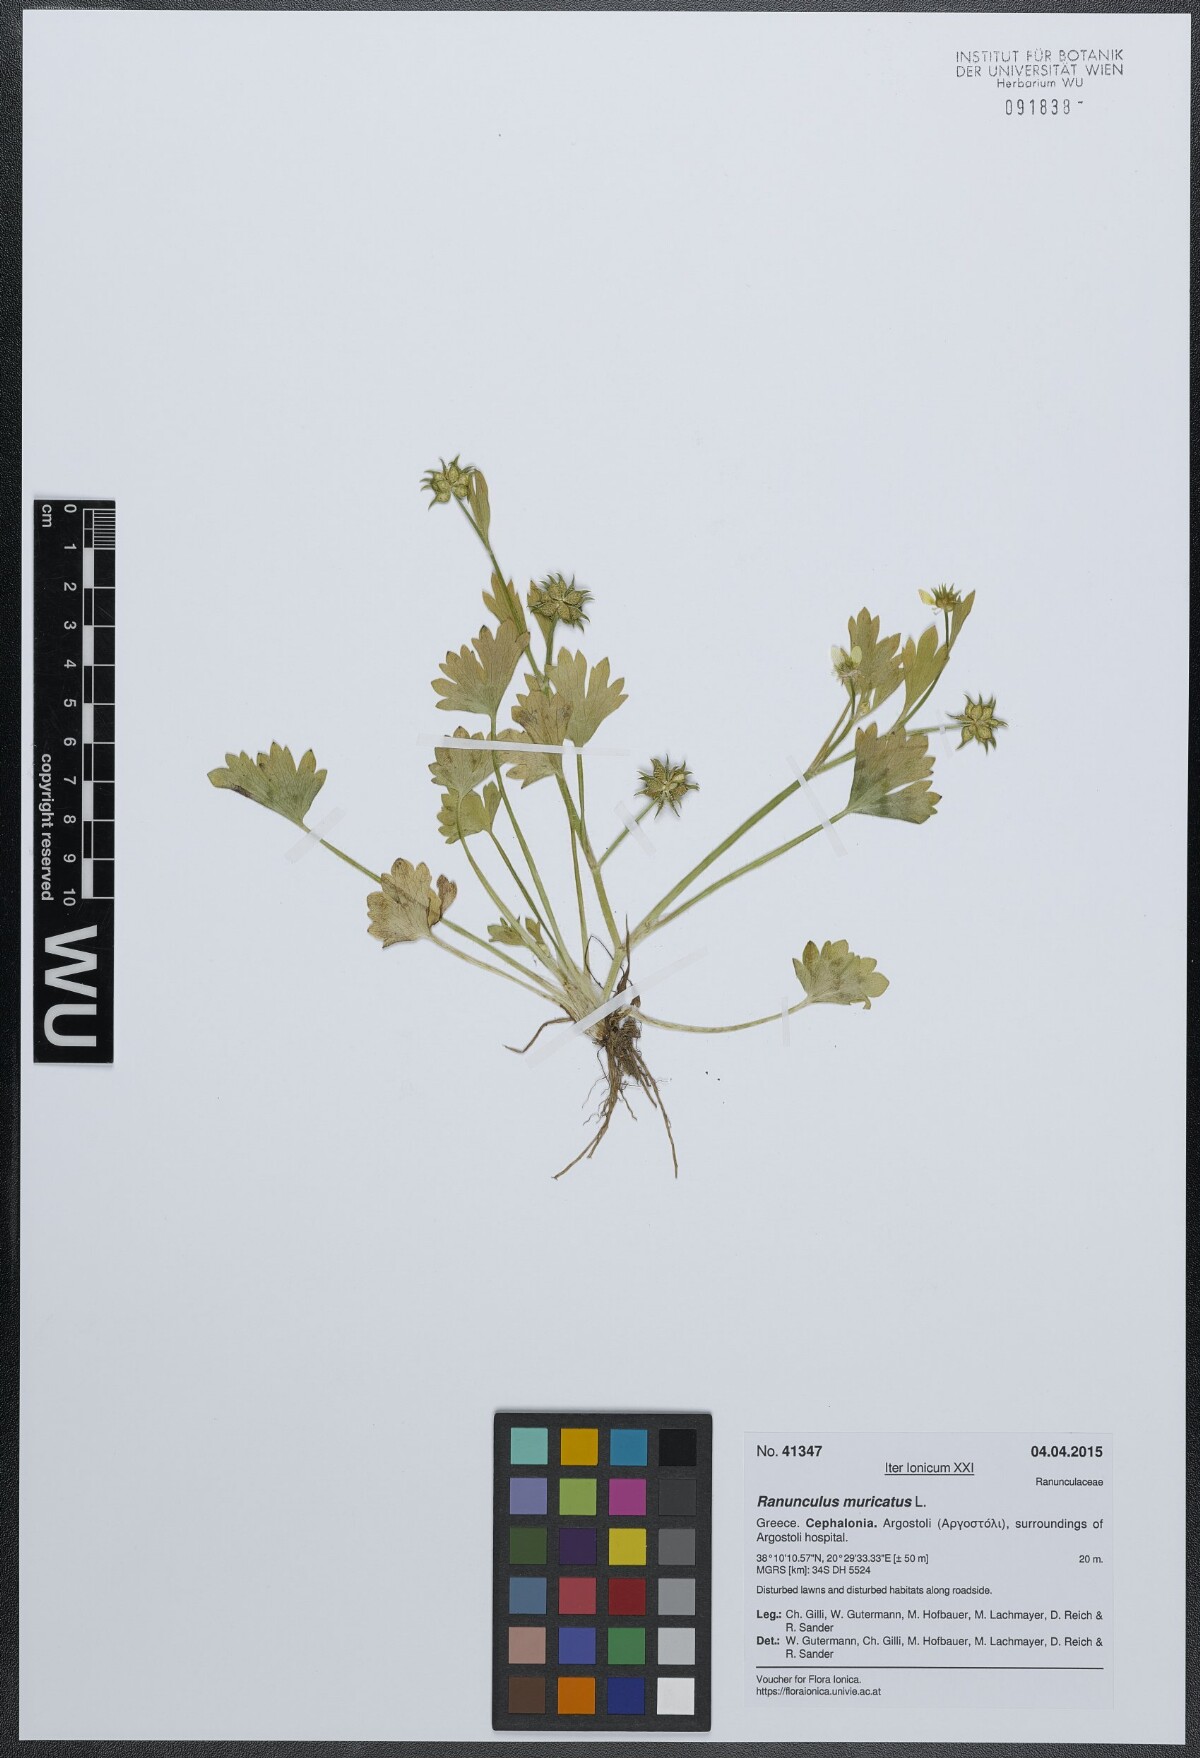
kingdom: Plantae
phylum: Tracheophyta
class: Magnoliopsida
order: Ranunculales
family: Ranunculaceae
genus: Ranunculus
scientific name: Ranunculus muricatus
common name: Rough-fruited buttercup
